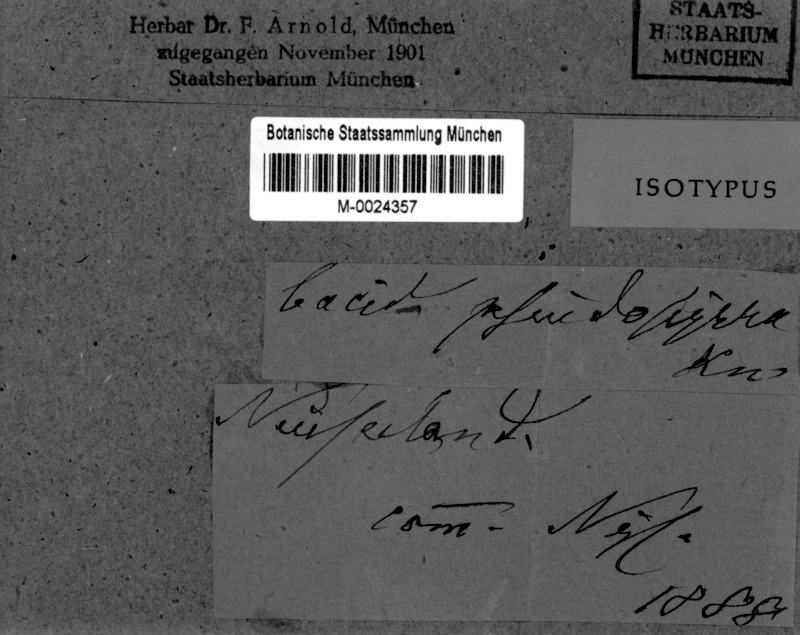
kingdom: Fungi
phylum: Ascomycota
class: Lecanoromycetes
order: Lecanorales
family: Ramalinaceae
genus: Bacidia
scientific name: Bacidia superula
